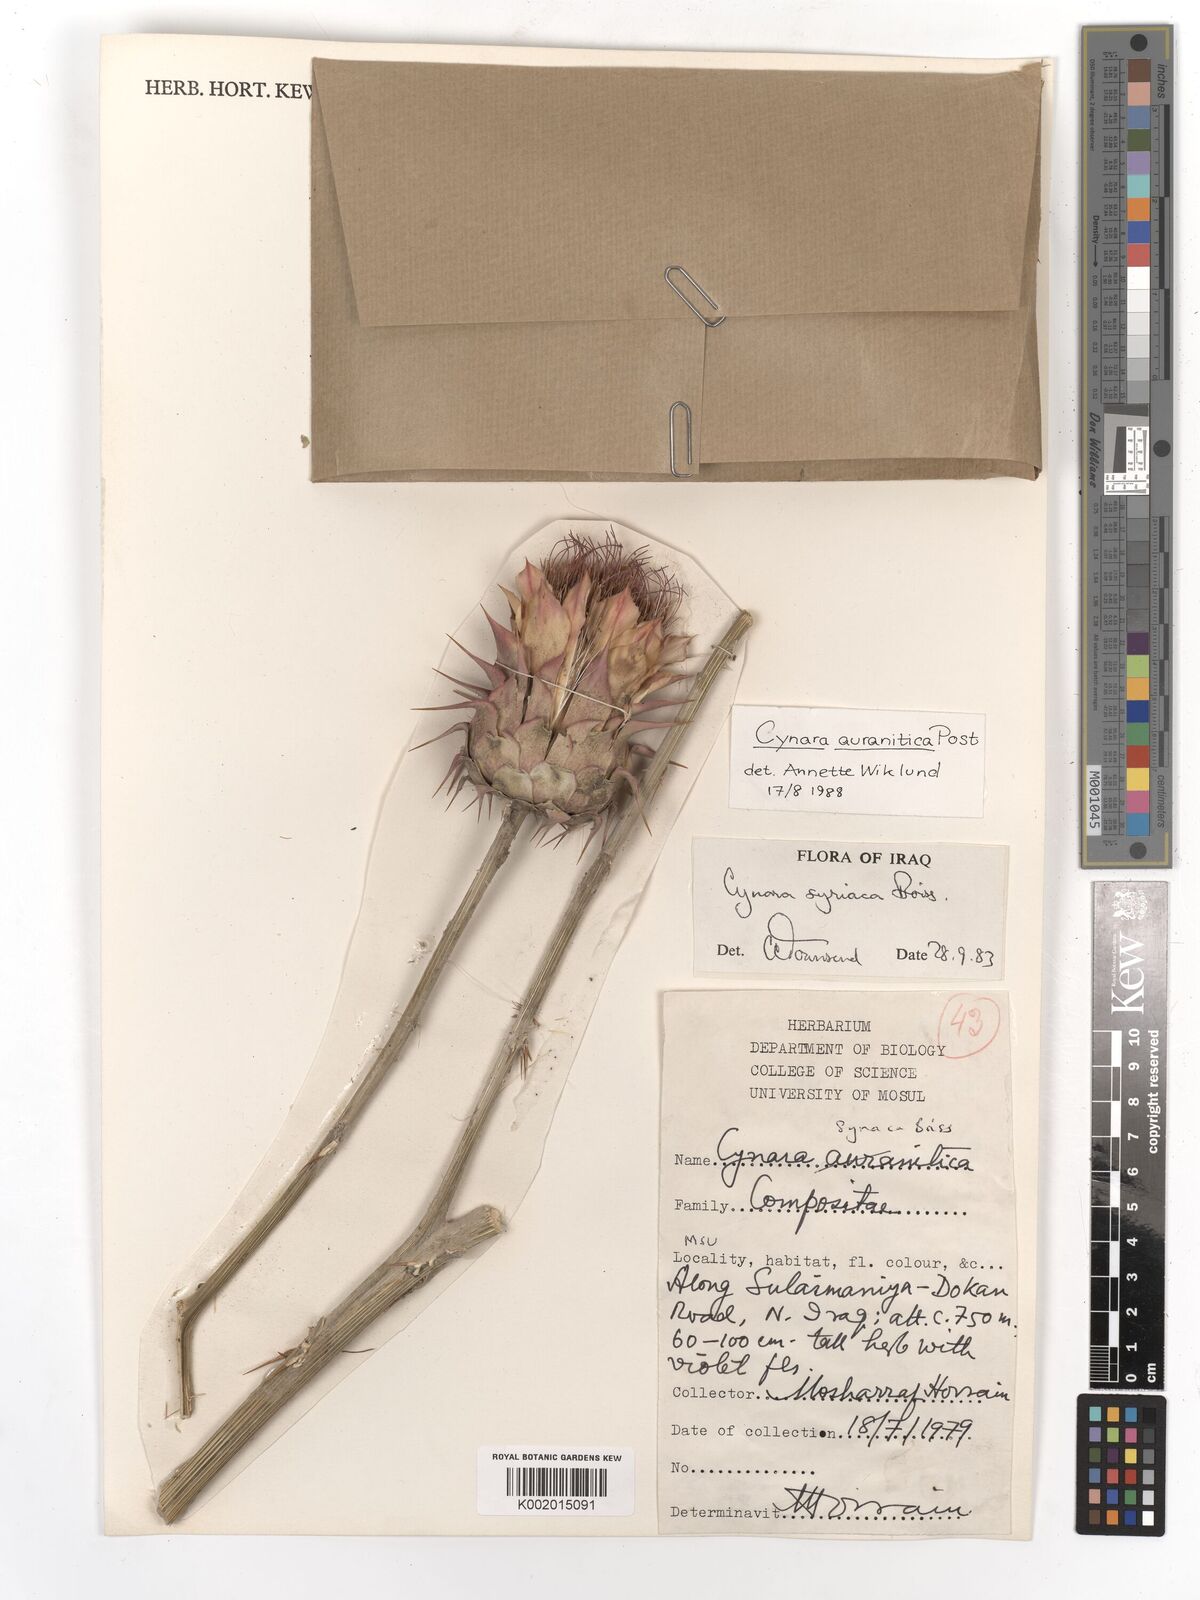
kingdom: Plantae
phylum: Tracheophyta
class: Magnoliopsida
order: Asterales
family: Asteraceae
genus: Cynara
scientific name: Cynara auranitica
